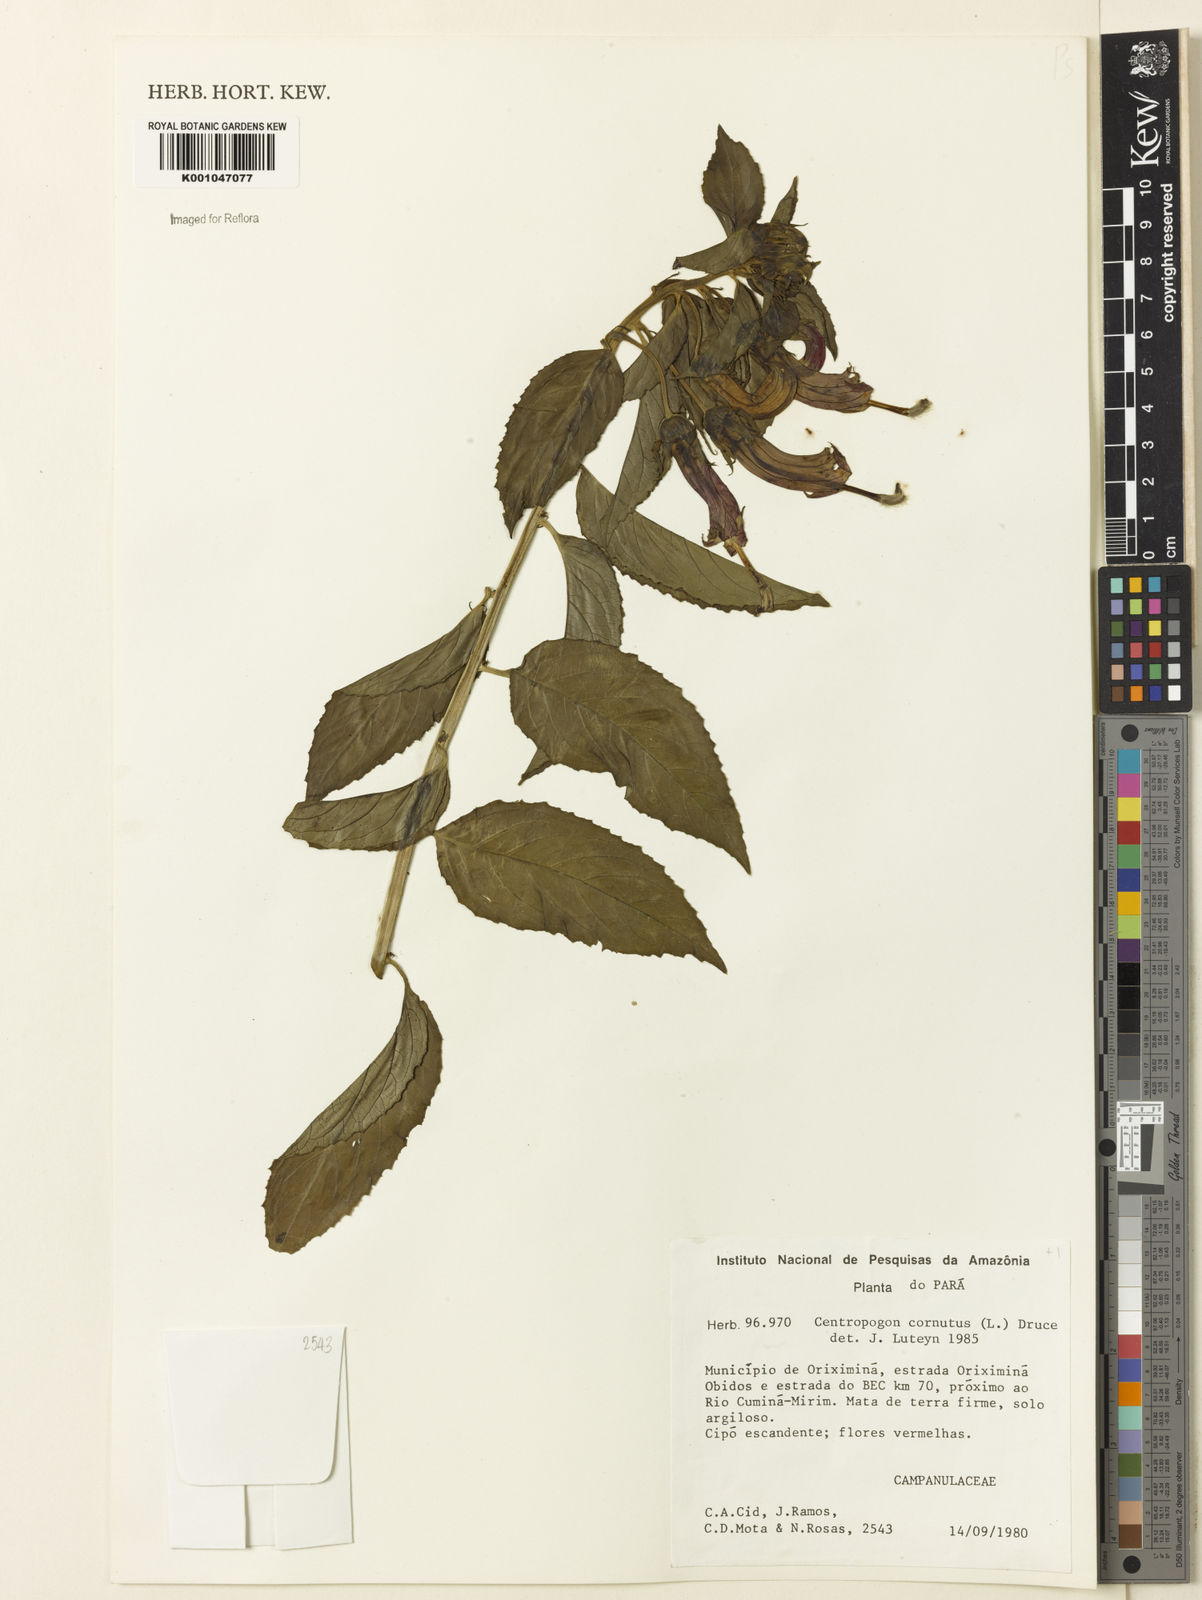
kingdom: Plantae
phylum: Tracheophyta
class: Magnoliopsida
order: Asterales
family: Campanulaceae
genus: Centropogon
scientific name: Centropogon cornutus
